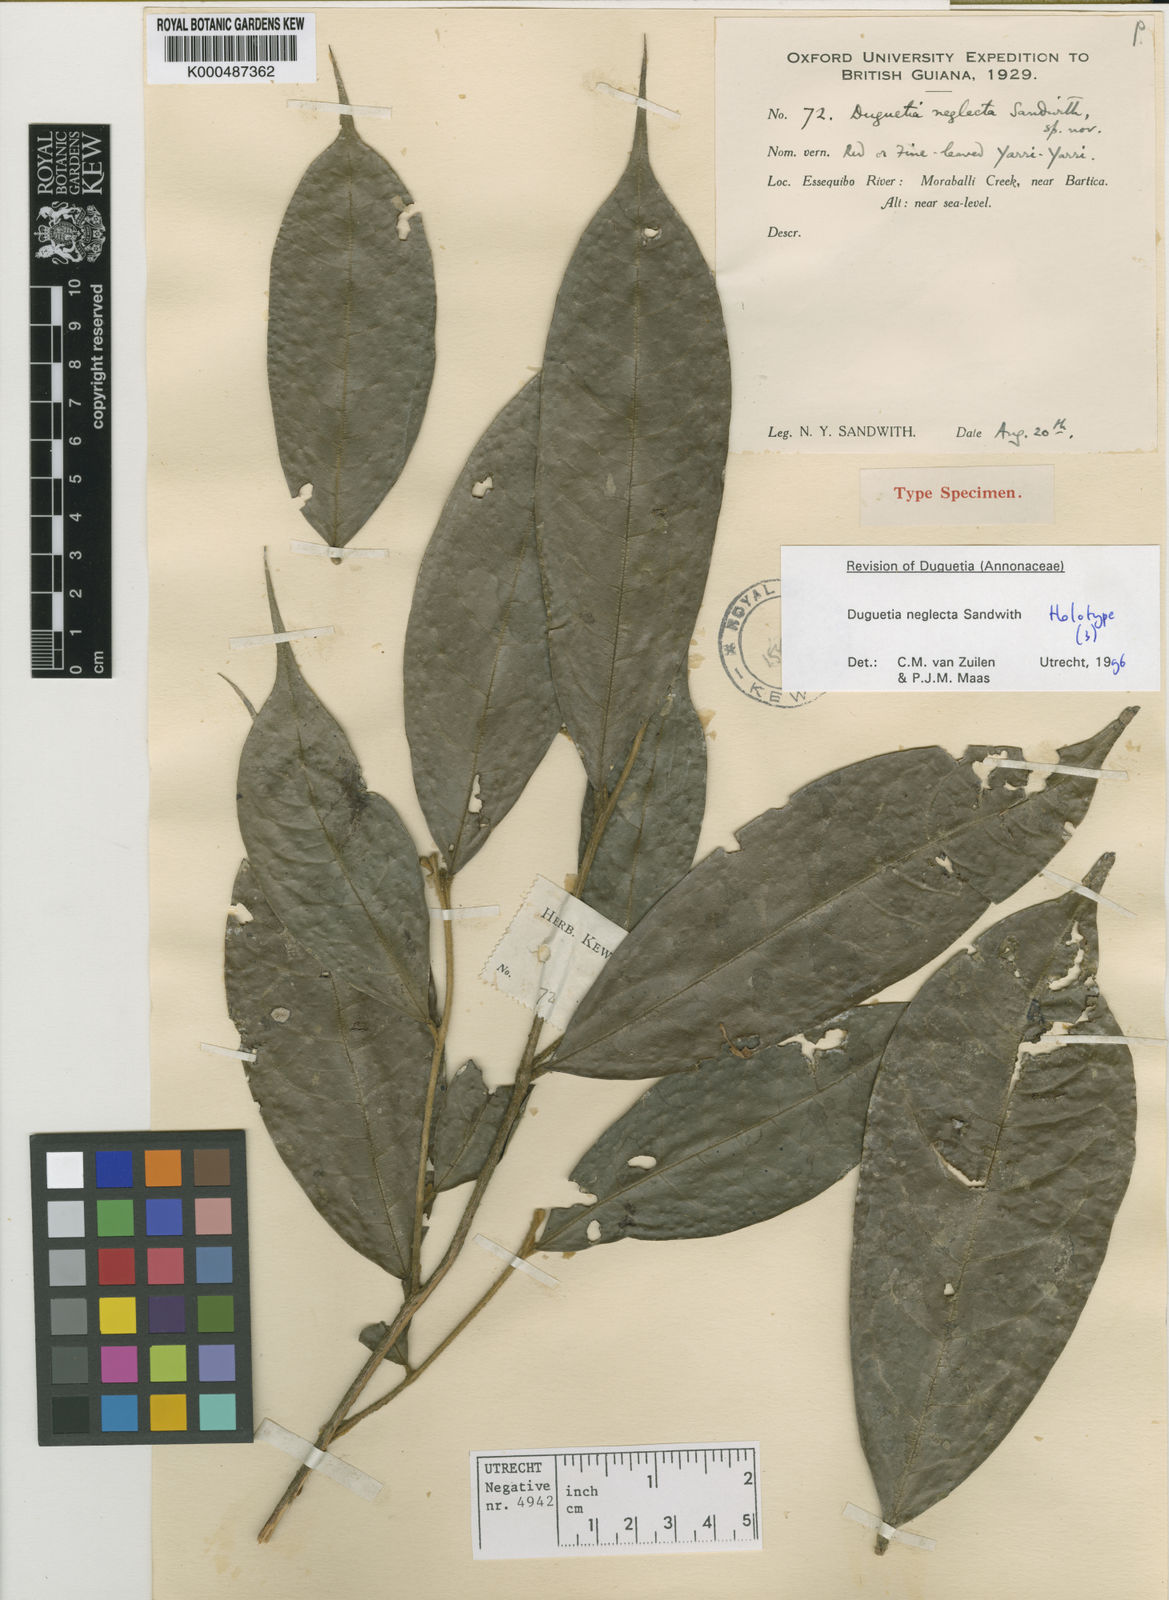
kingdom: Plantae
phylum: Tracheophyta
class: Magnoliopsida
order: Magnoliales
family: Annonaceae
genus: Duguetia
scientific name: Duguetia neglecta
